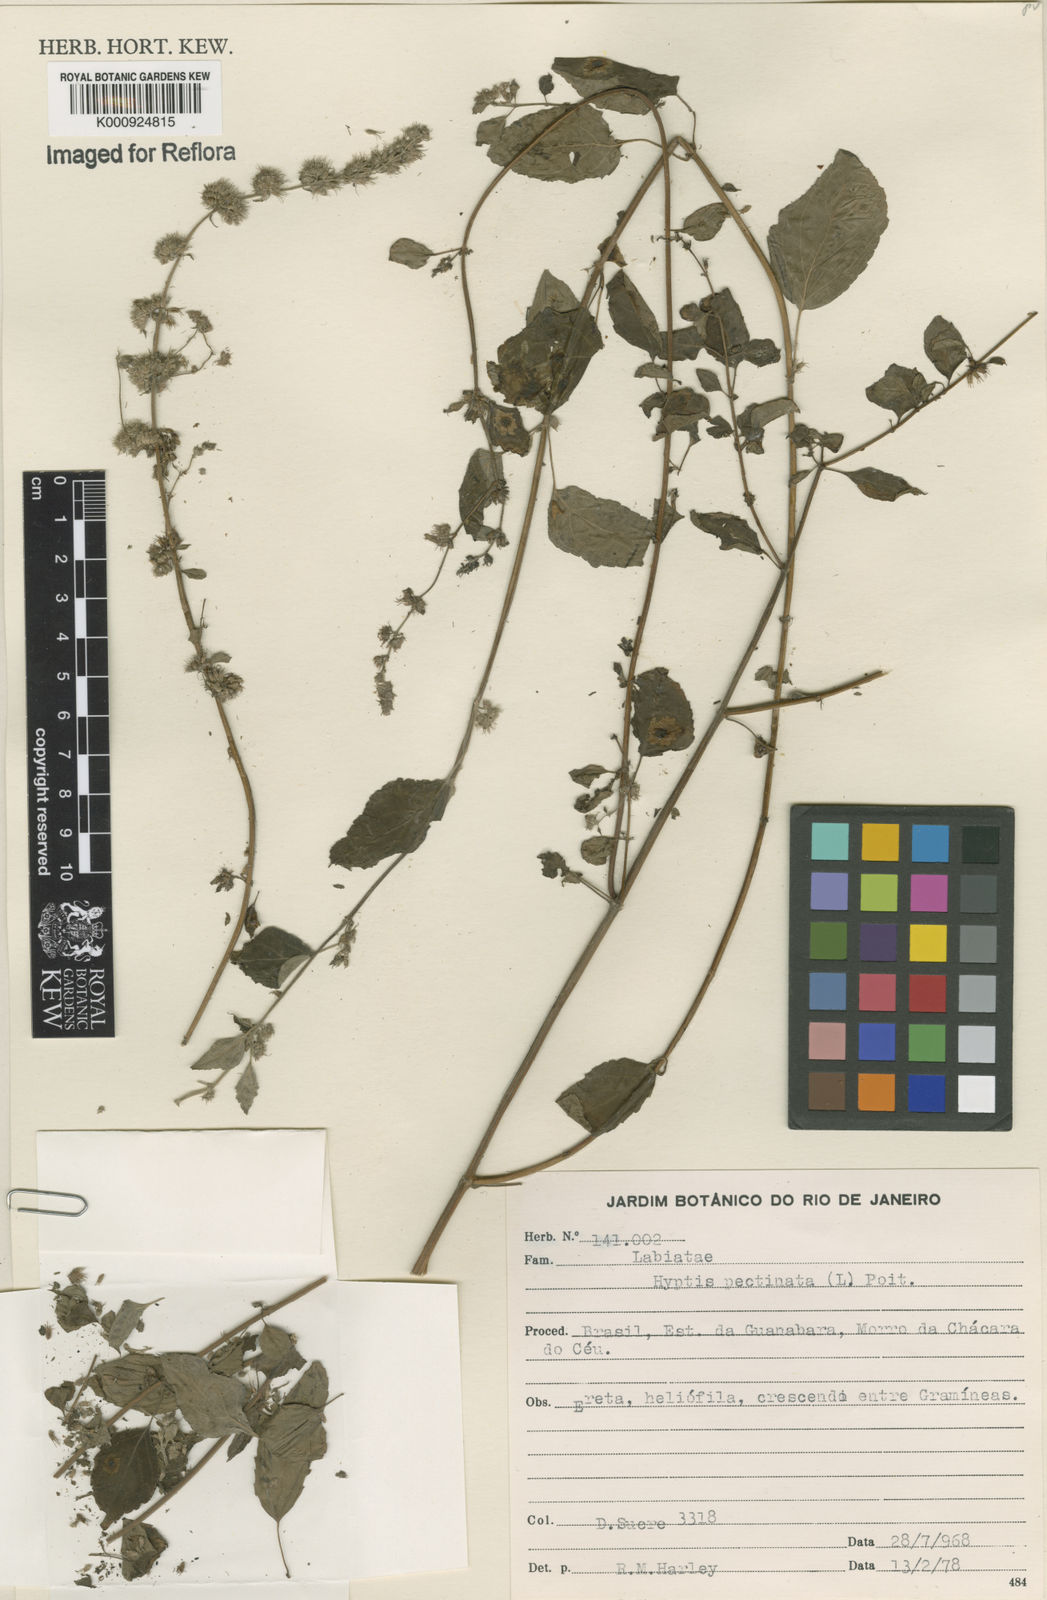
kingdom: Plantae
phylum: Tracheophyta
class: Magnoliopsida
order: Lamiales
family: Lamiaceae
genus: Mesosphaerum
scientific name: Mesosphaerum pectinatum
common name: Comb hyptis
